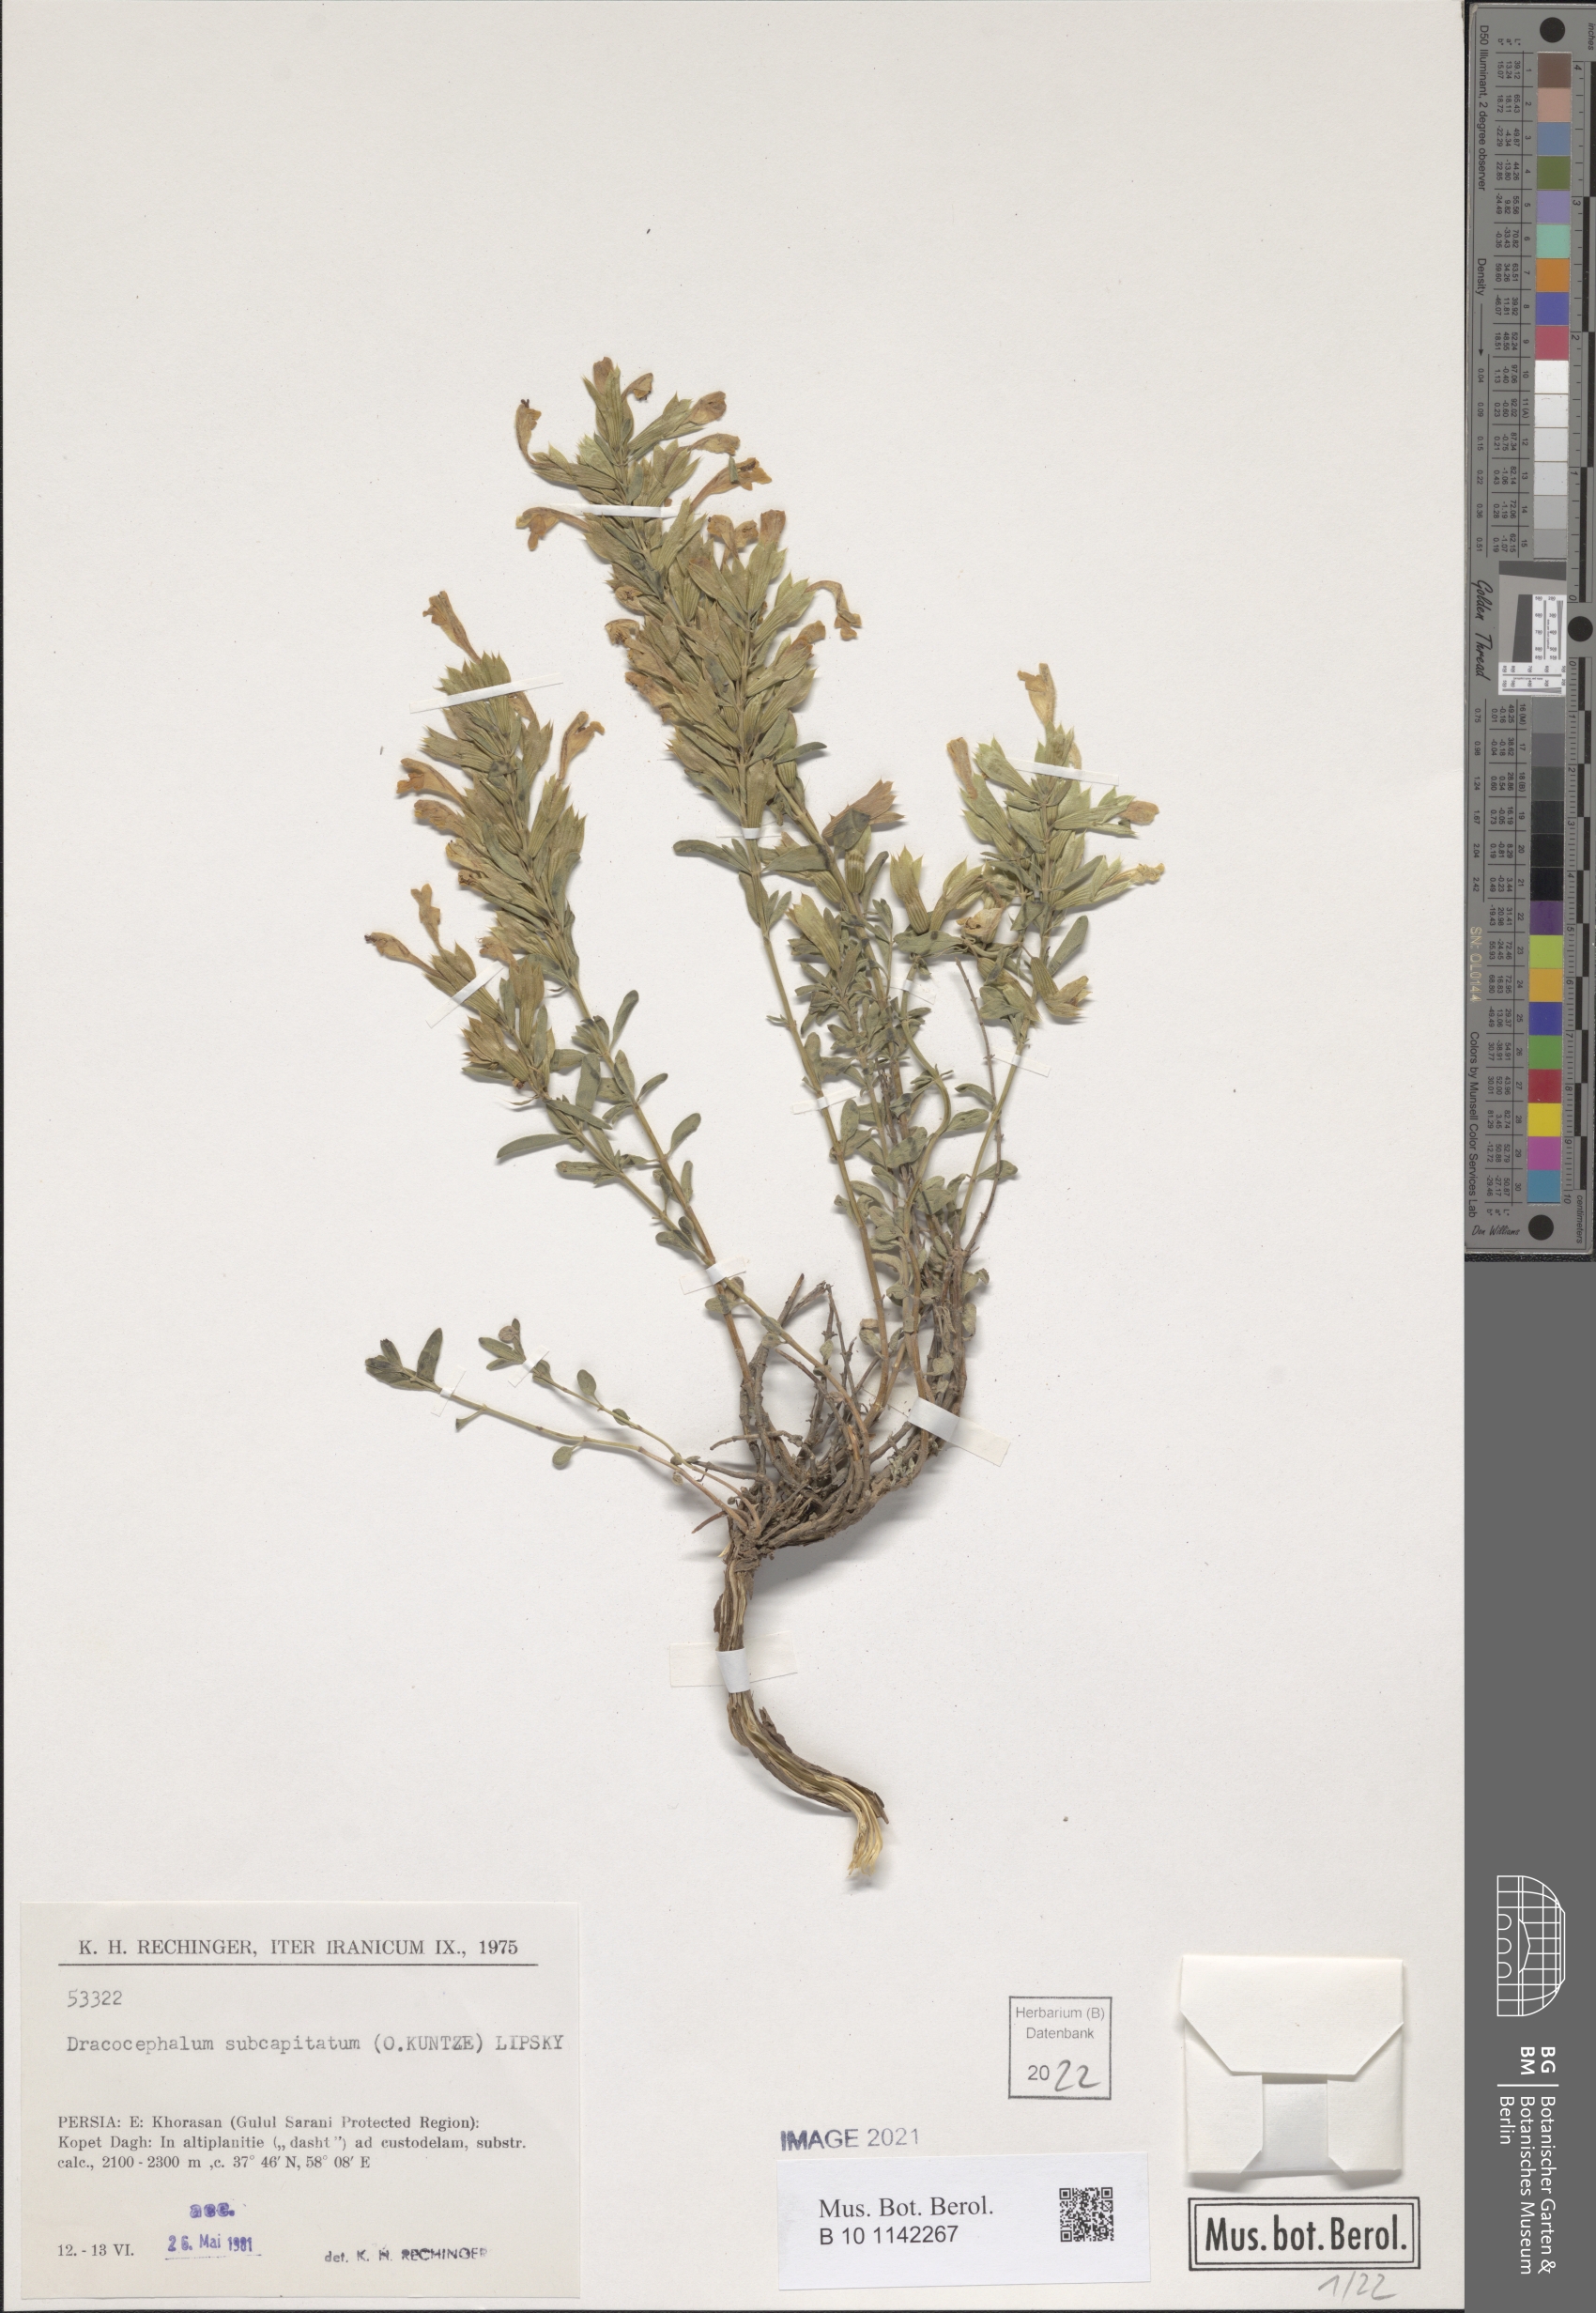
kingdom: Plantae
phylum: Tracheophyta
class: Magnoliopsida
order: Lamiales
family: Lamiaceae
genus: Dracocephalum
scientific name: Dracocephalum subcapitatum
